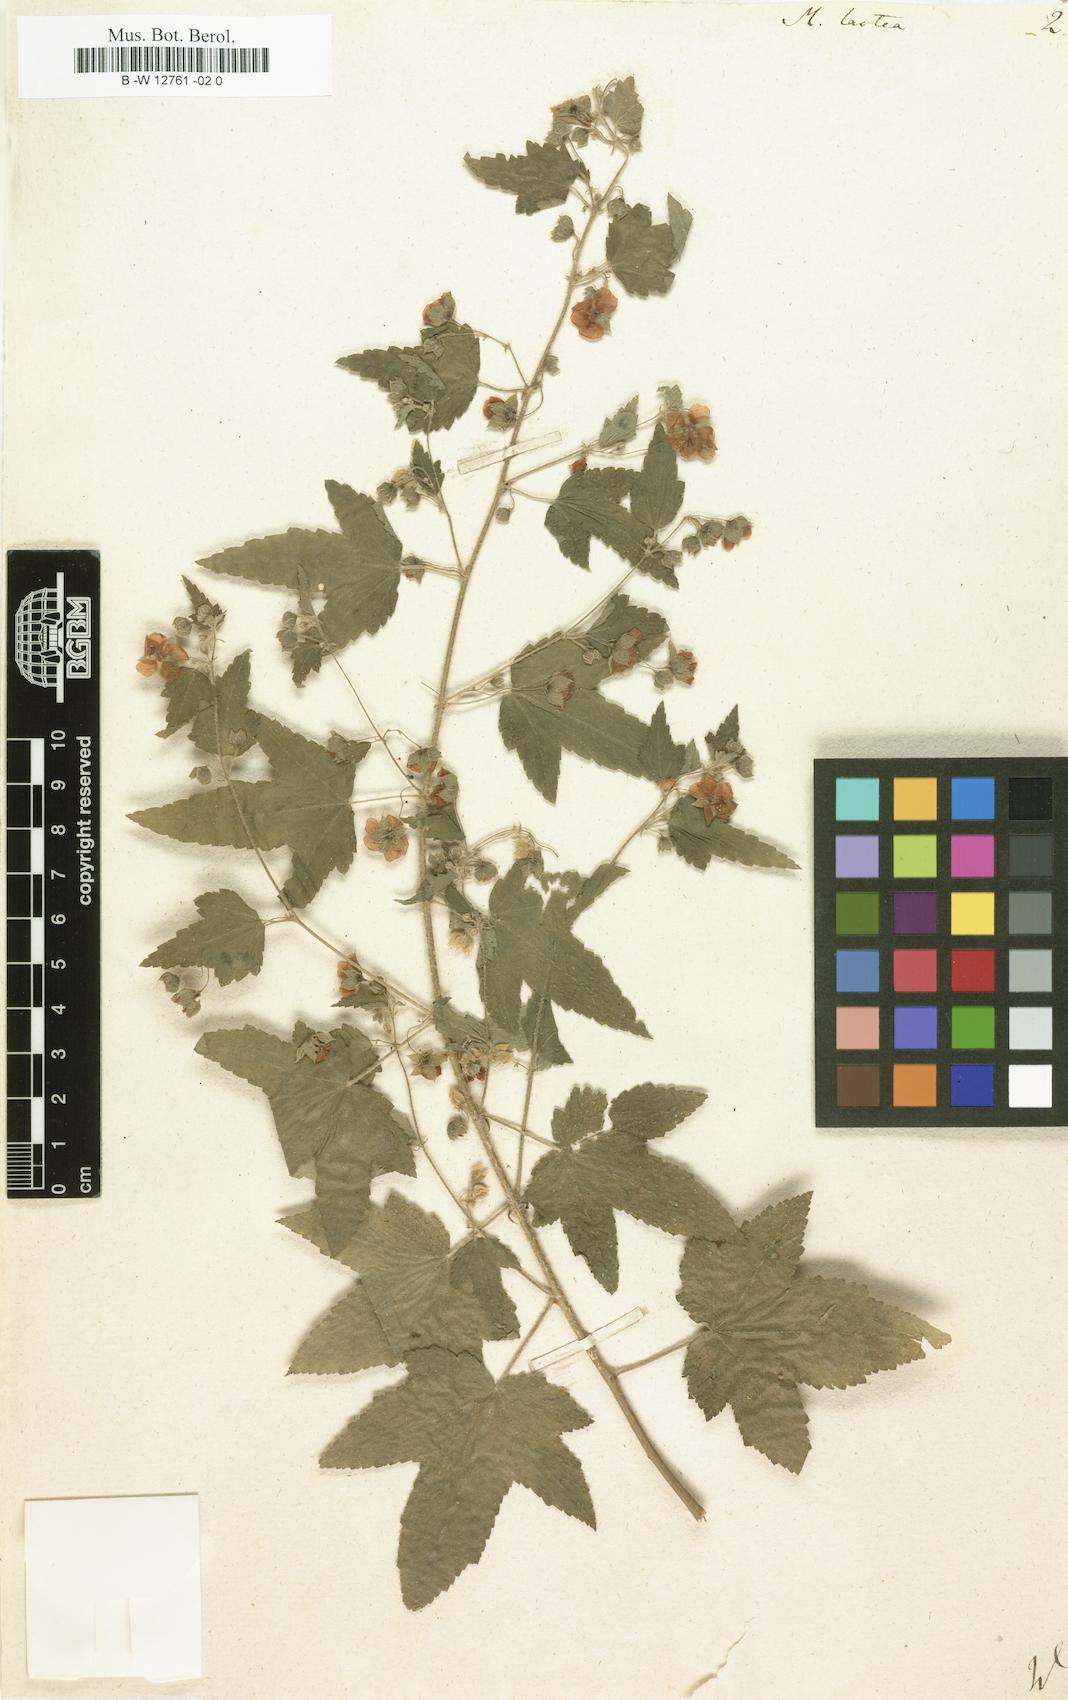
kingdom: Plantae
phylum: Tracheophyta
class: Magnoliopsida
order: Malvales
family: Malvaceae
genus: Kearnemalvastrum
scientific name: Kearnemalvastrum lacteum
